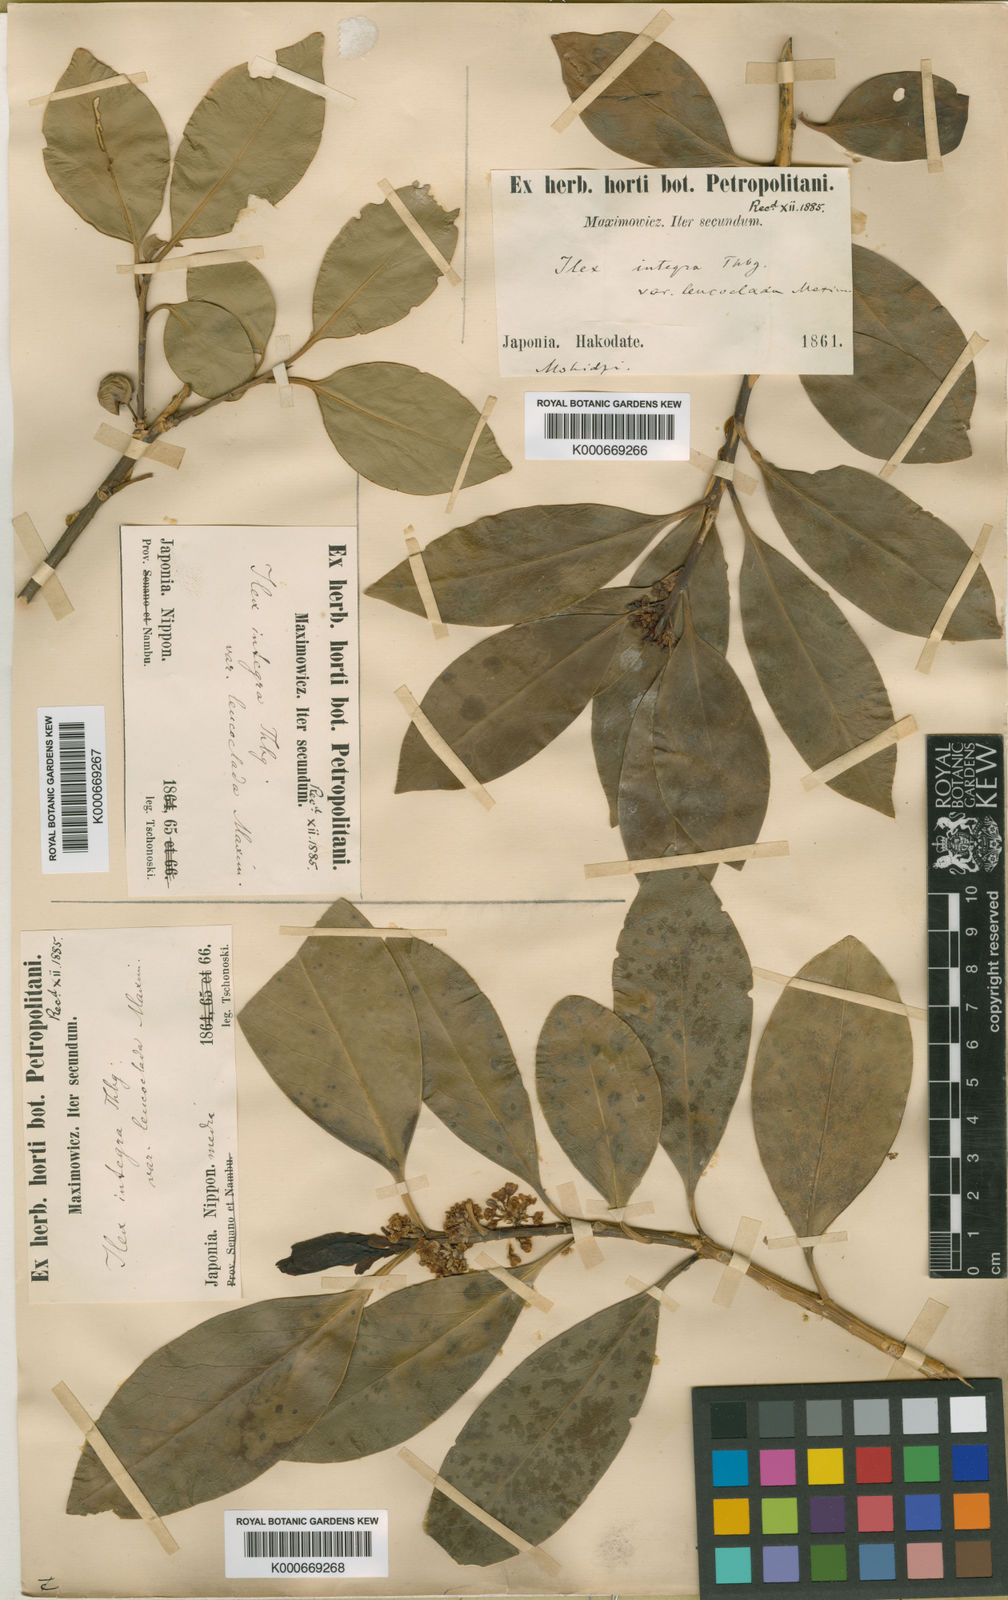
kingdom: Plantae
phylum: Tracheophyta
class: Magnoliopsida
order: Aquifoliales
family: Aquifoliaceae
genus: Ilex
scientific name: Ilex leucoclada
